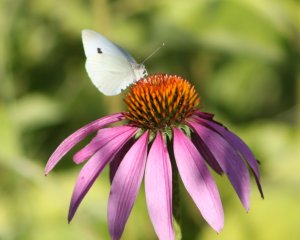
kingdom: Animalia
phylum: Arthropoda
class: Insecta
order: Lepidoptera
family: Pieridae
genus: Pieris
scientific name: Pieris rapae
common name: Cabbage White
